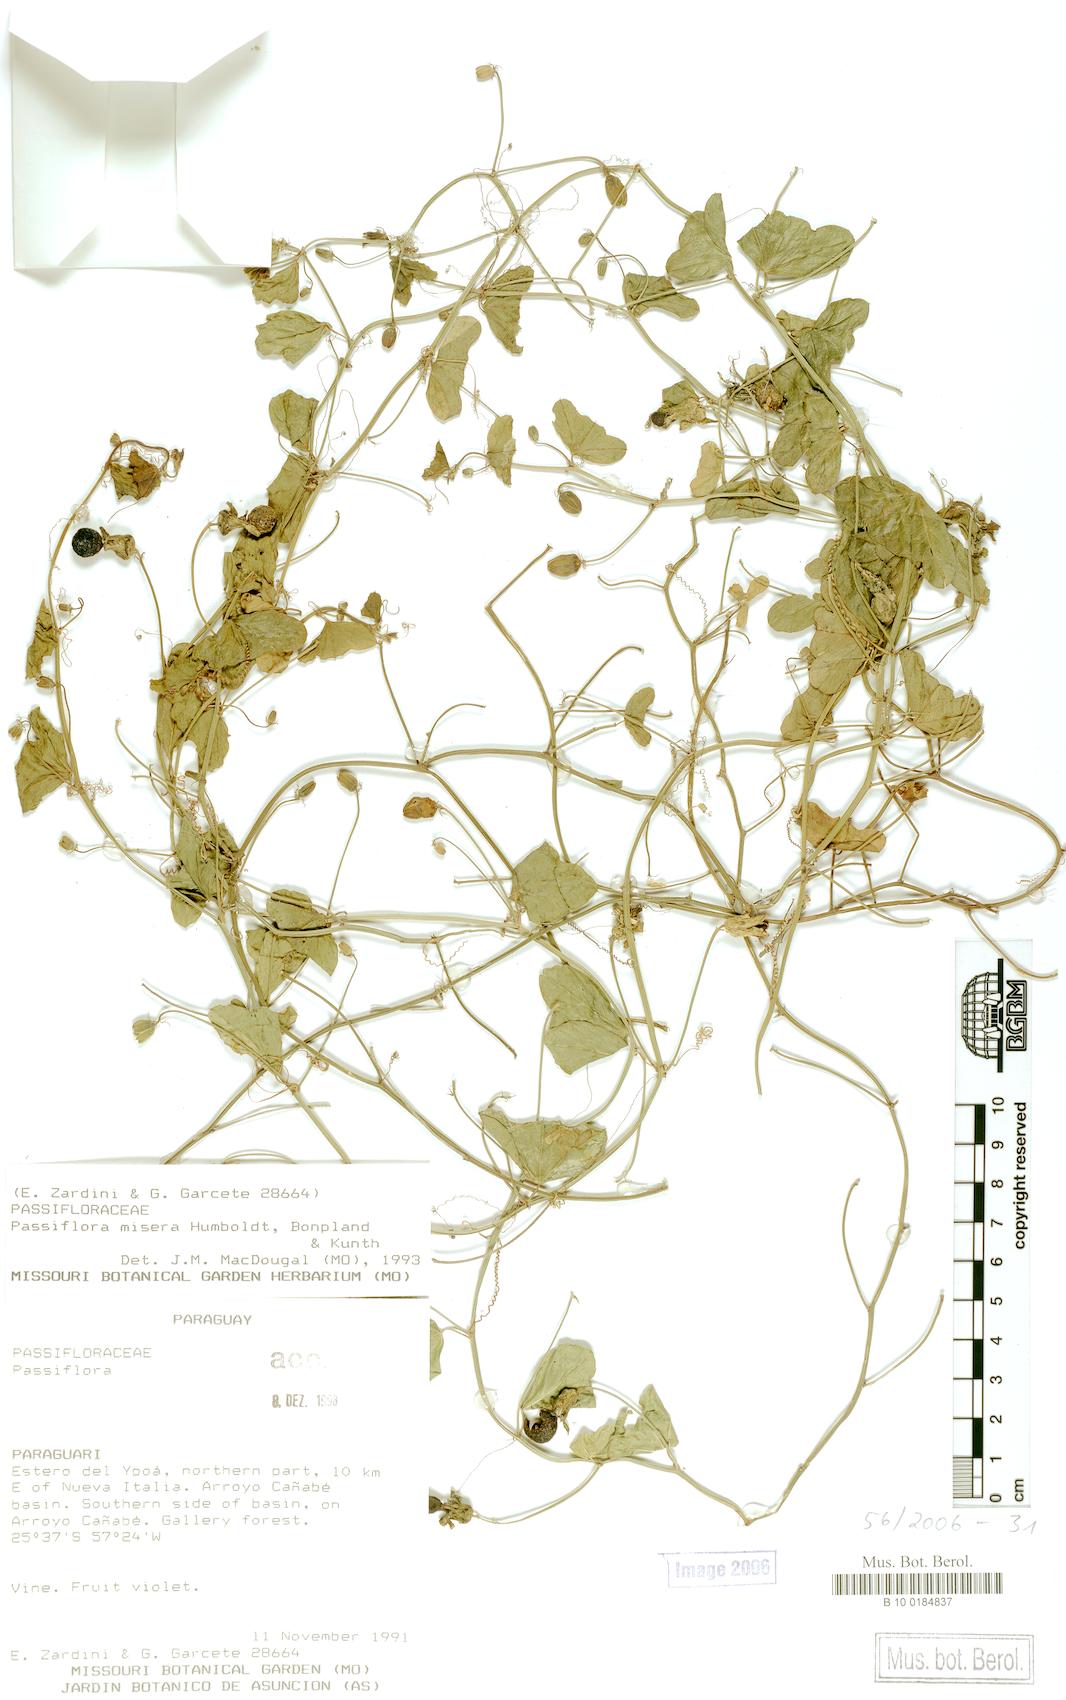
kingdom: Plantae
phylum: Tracheophyta
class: Magnoliopsida
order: Malpighiales
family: Passifloraceae
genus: Passiflora
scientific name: Passiflora misera
